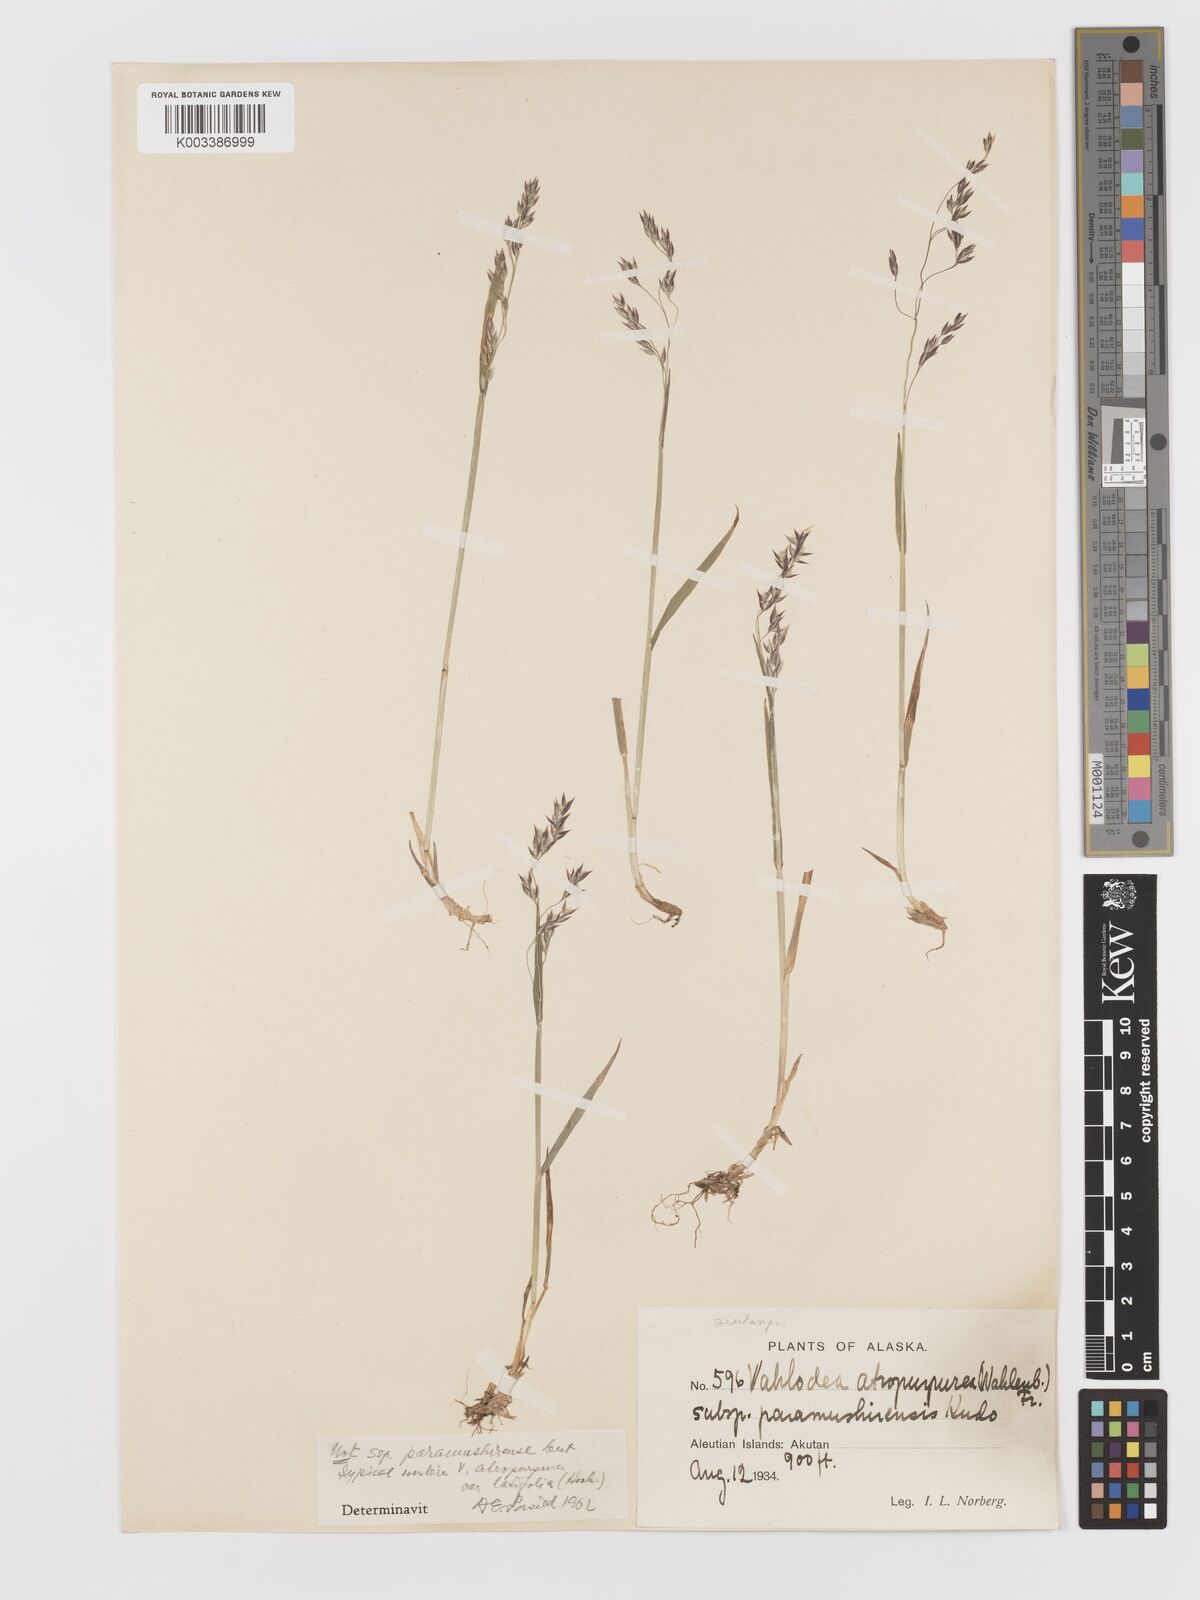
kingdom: Plantae
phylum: Tracheophyta
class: Liliopsida
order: Poales
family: Poaceae
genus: Vahlodea
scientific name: Vahlodea atropurpurea
